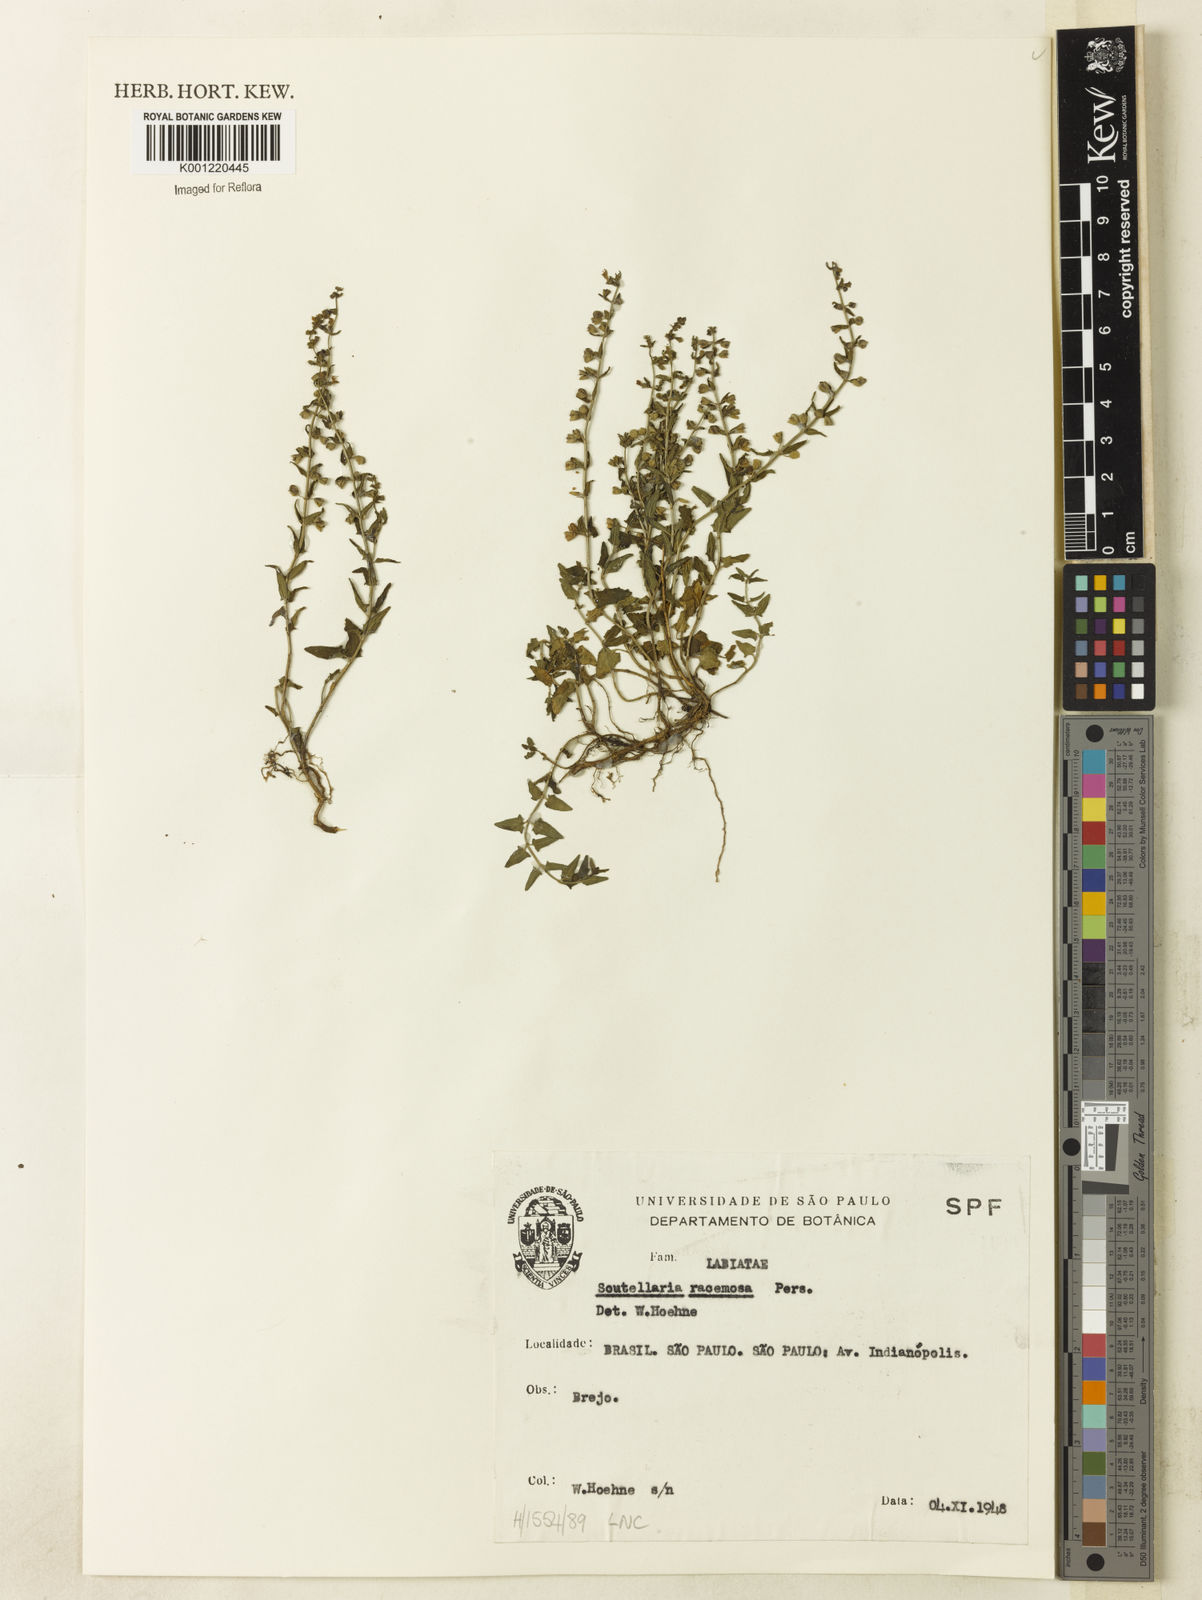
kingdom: Plantae
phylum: Tracheophyta
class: Magnoliopsida
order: Lamiales
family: Lamiaceae
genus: Scutellaria
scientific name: Scutellaria racemosa
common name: South american skullcap
